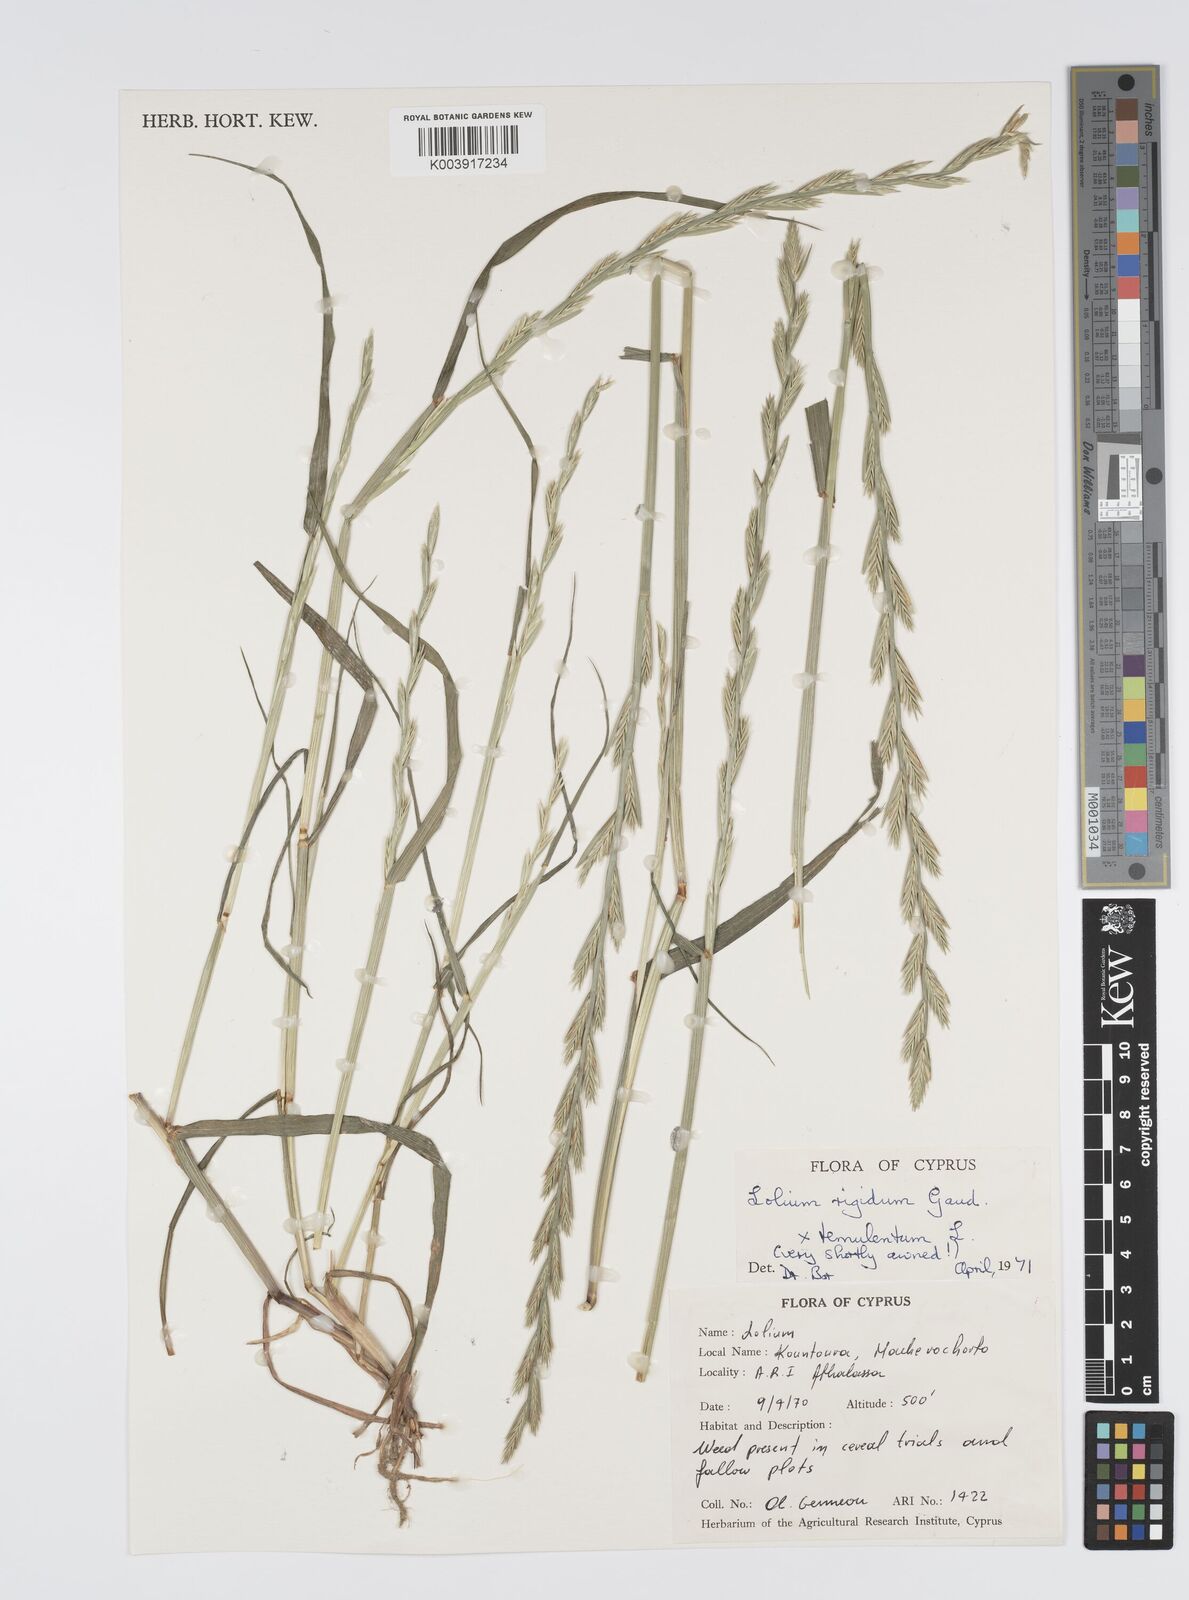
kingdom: Plantae
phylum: Tracheophyta
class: Liliopsida
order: Poales
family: Poaceae
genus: Lolium
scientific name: Lolium rigidum
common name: Wimmera ryegrass
